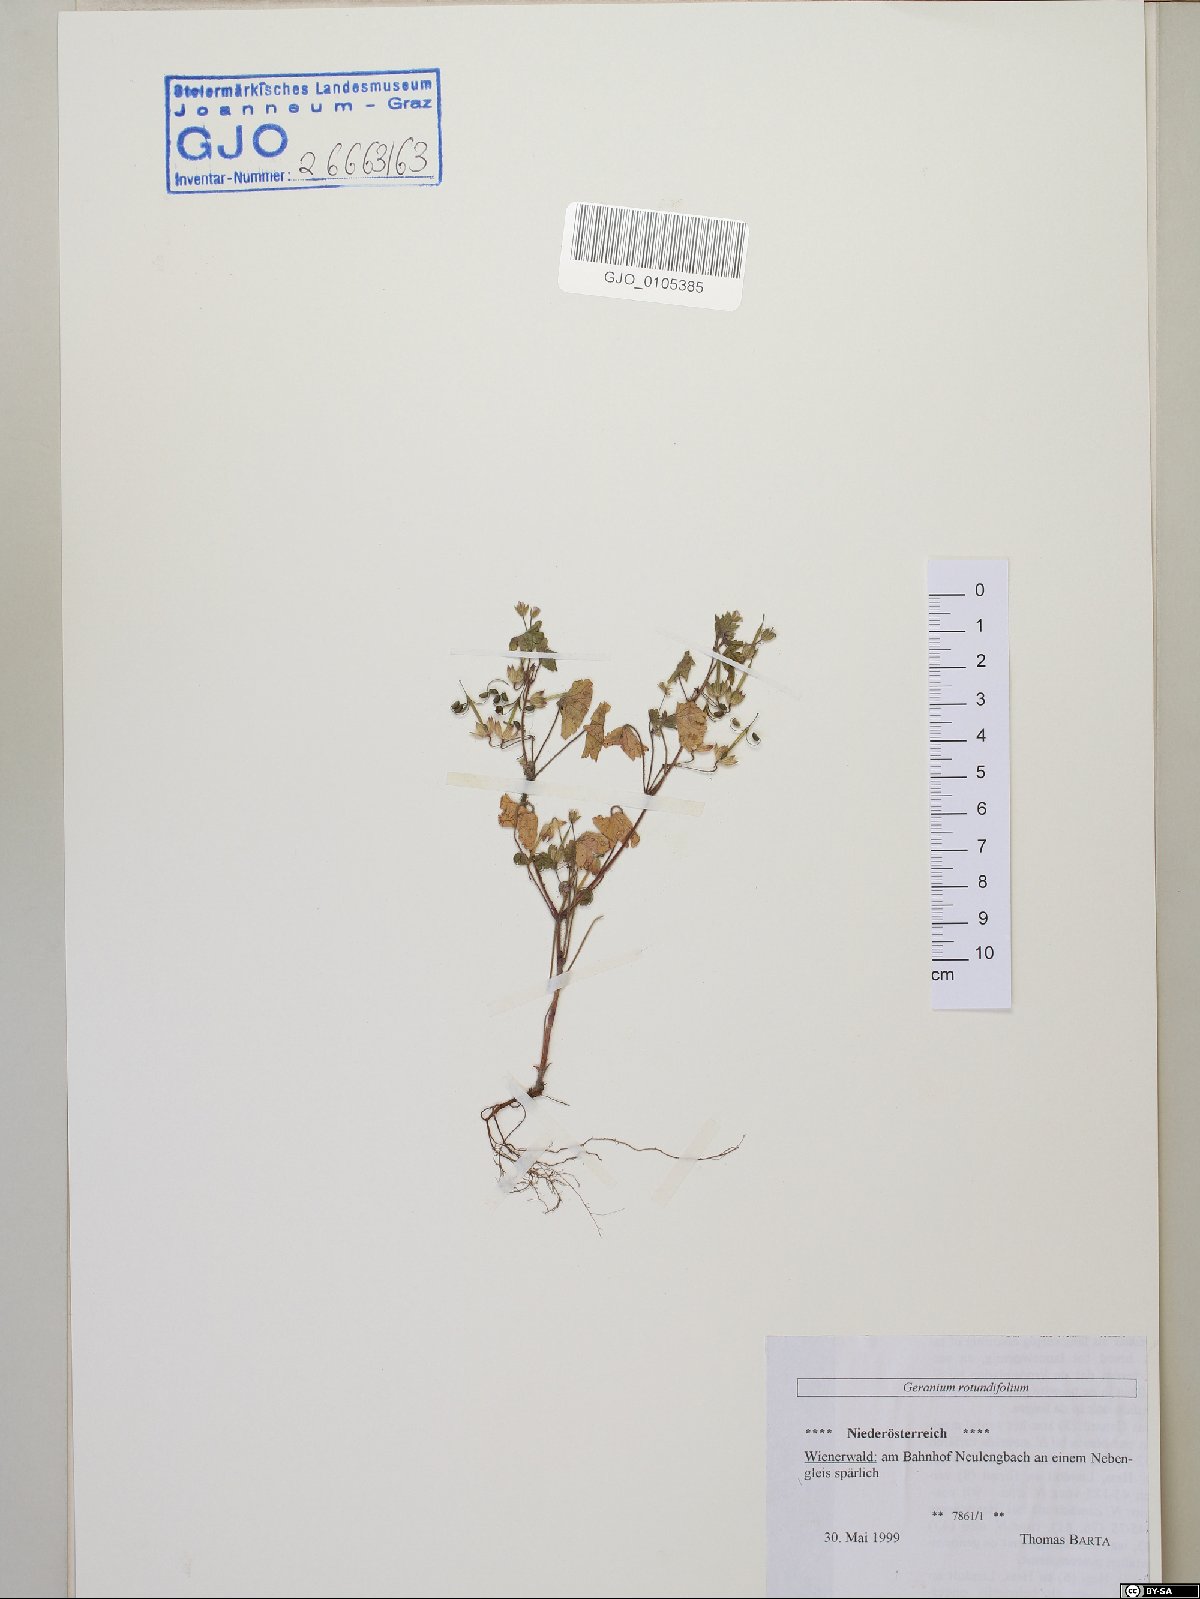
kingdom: Plantae
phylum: Tracheophyta
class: Magnoliopsida
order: Geraniales
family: Geraniaceae
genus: Geranium
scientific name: Geranium rotundifolium
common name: Round-leaved crane's-bill
